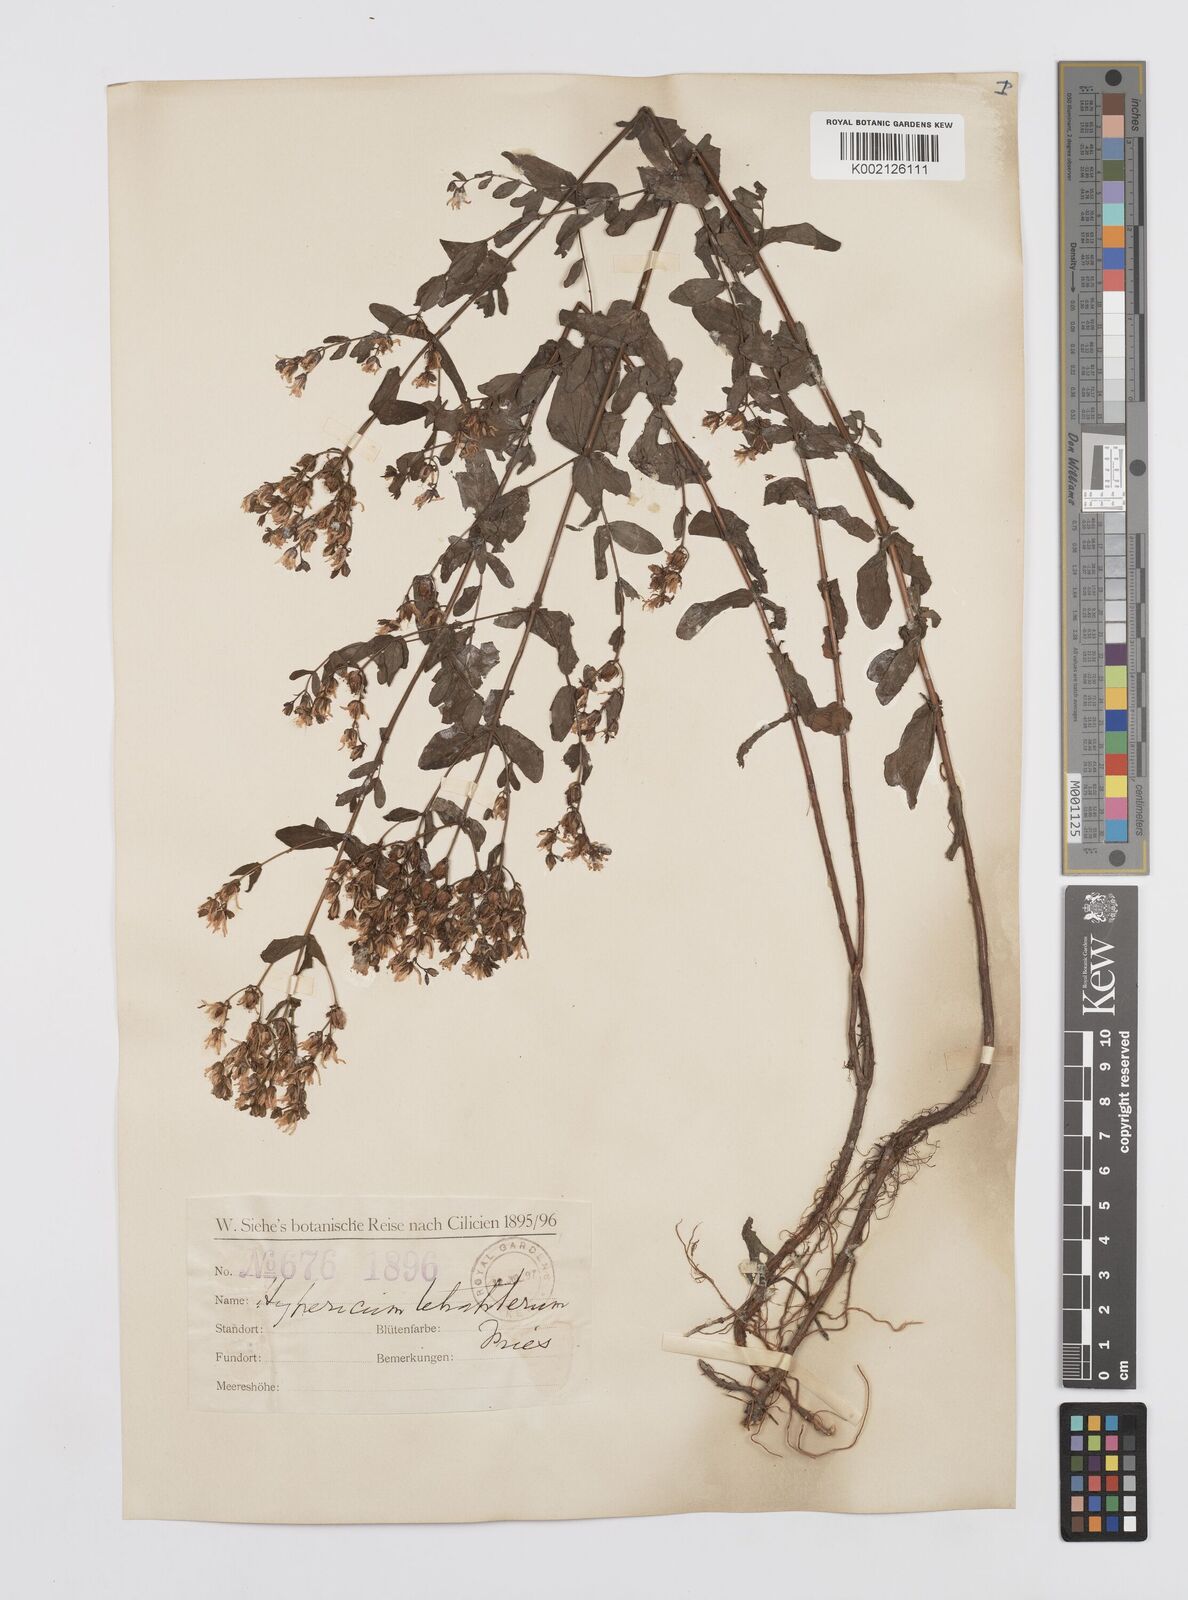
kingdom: Plantae
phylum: Tracheophyta
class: Magnoliopsida
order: Malpighiales
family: Hypericaceae
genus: Hypericum
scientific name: Hypericum tetrapterum
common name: Square-stalked st. john's-wort
